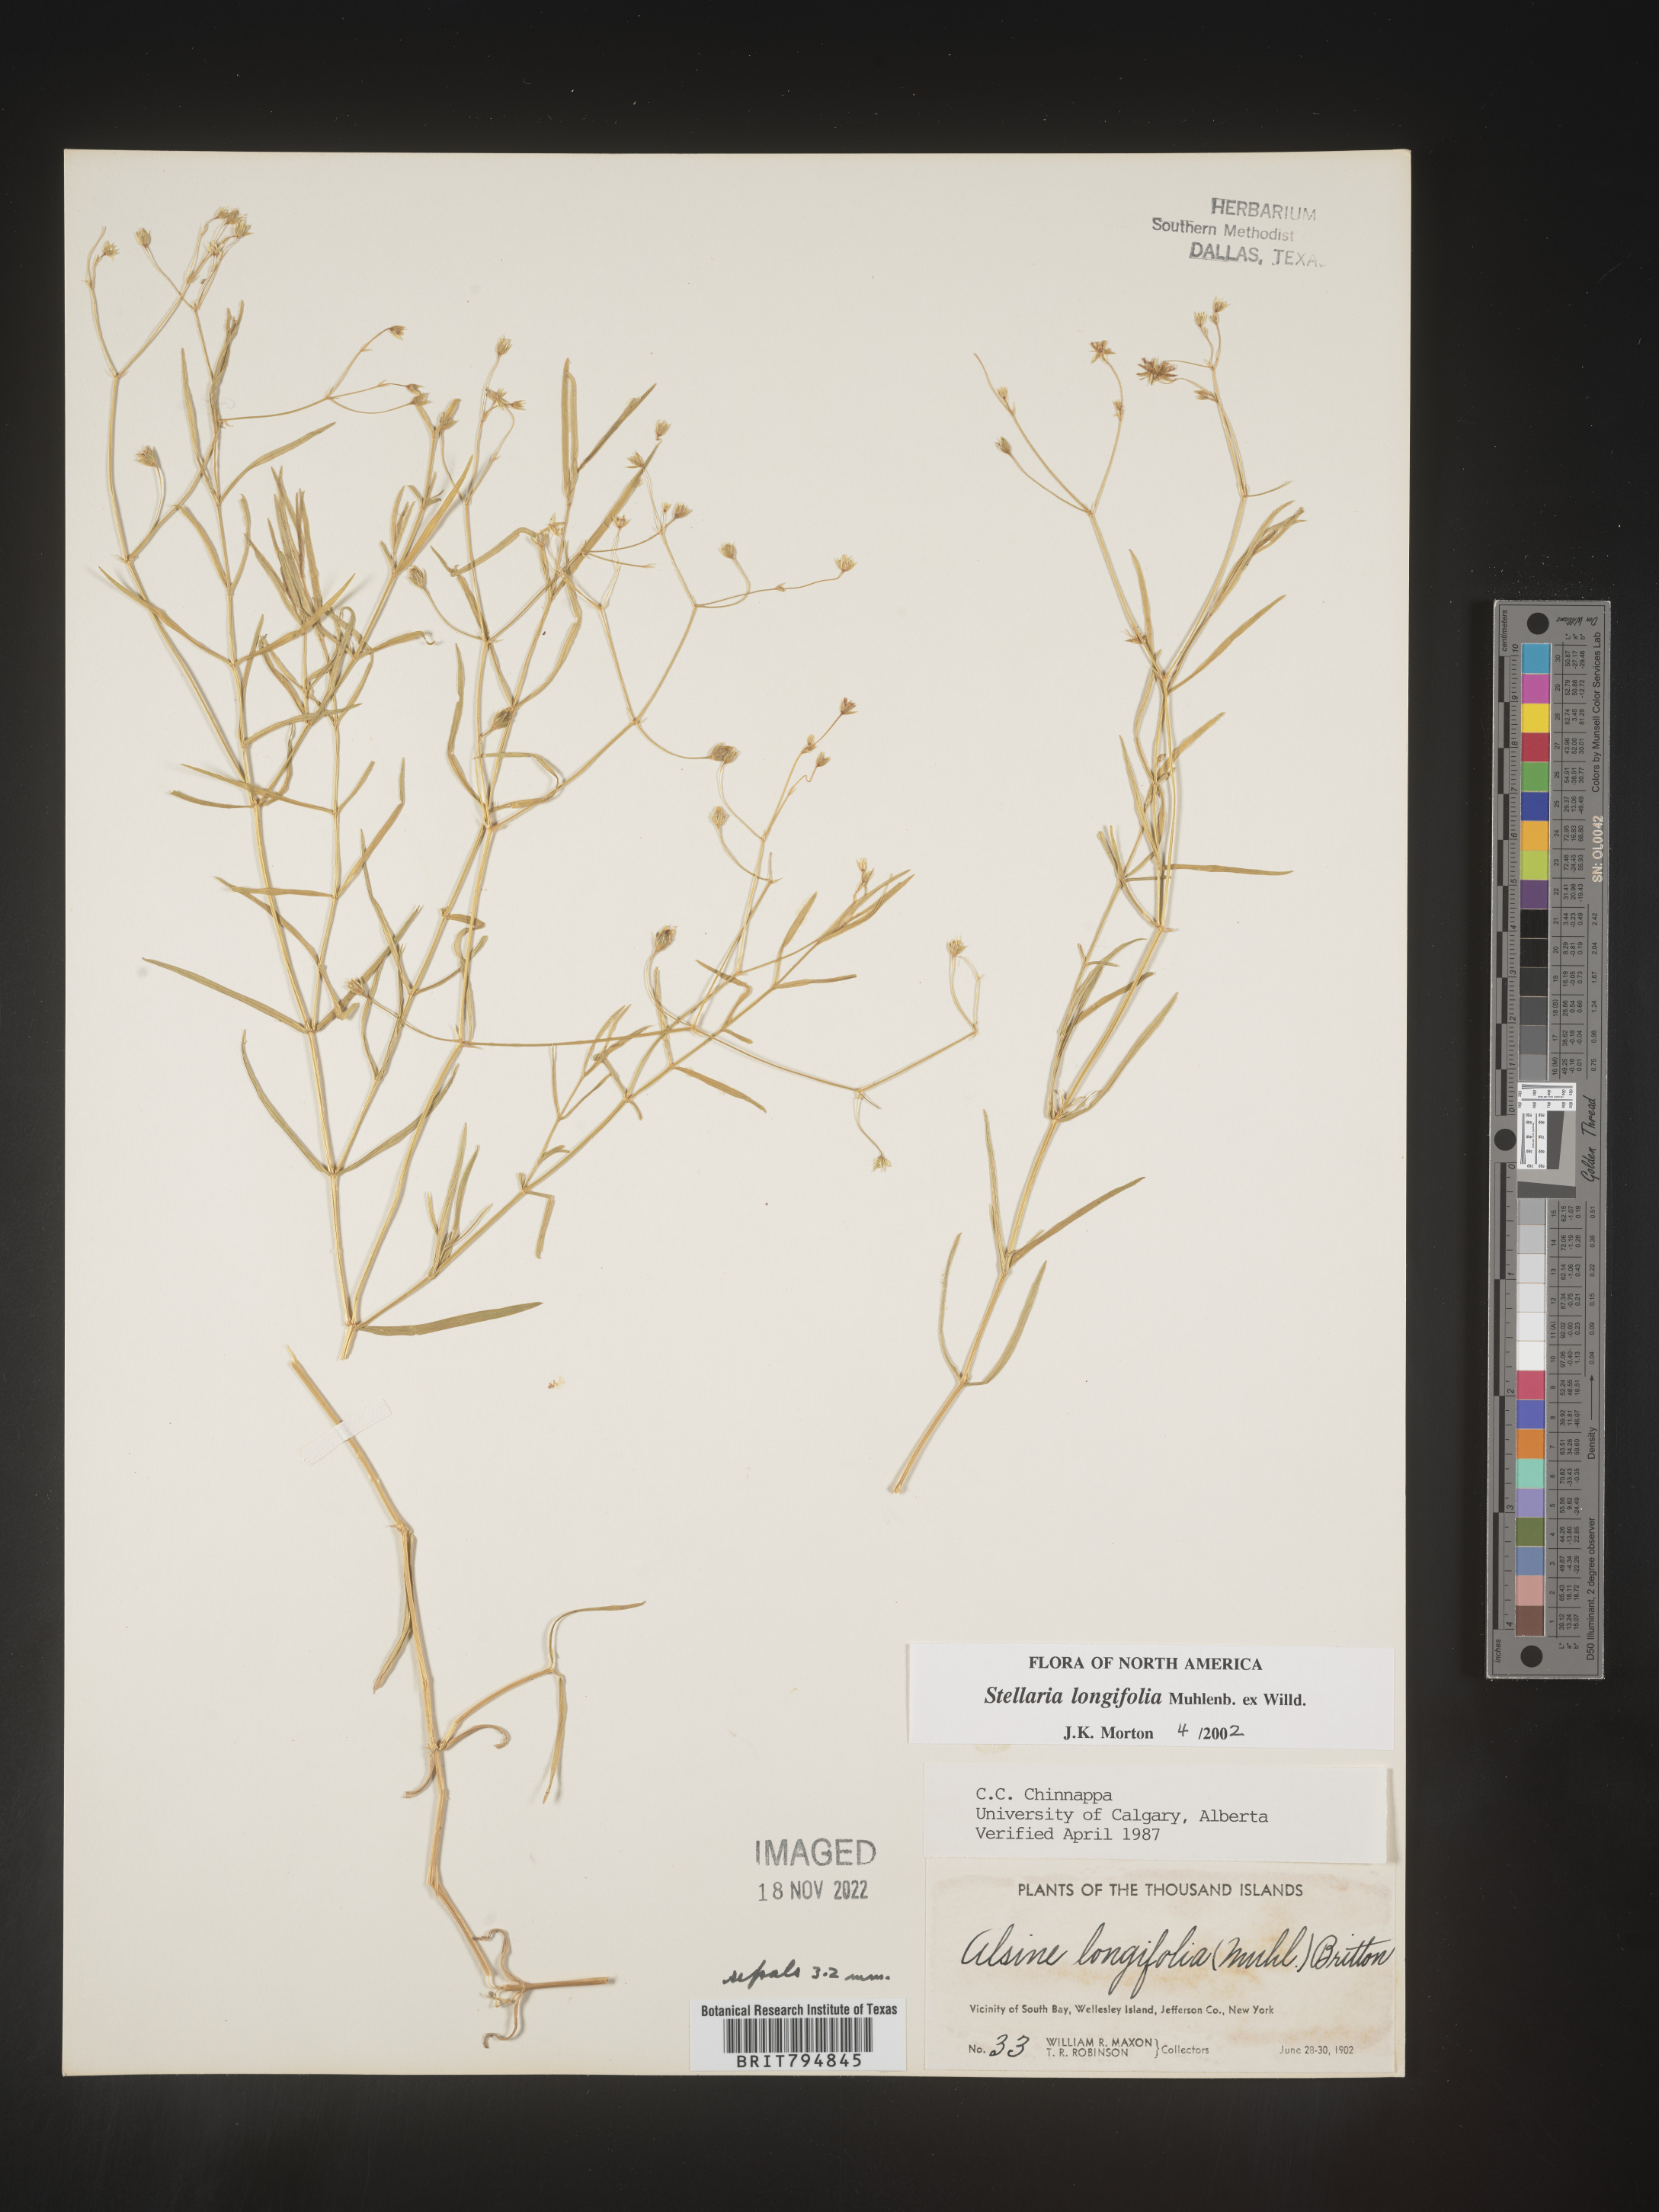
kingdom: Plantae
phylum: Tracheophyta
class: Magnoliopsida
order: Caryophyllales
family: Caryophyllaceae
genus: Stellaria
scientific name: Stellaria longifolia
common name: Long-leaved chickweed
